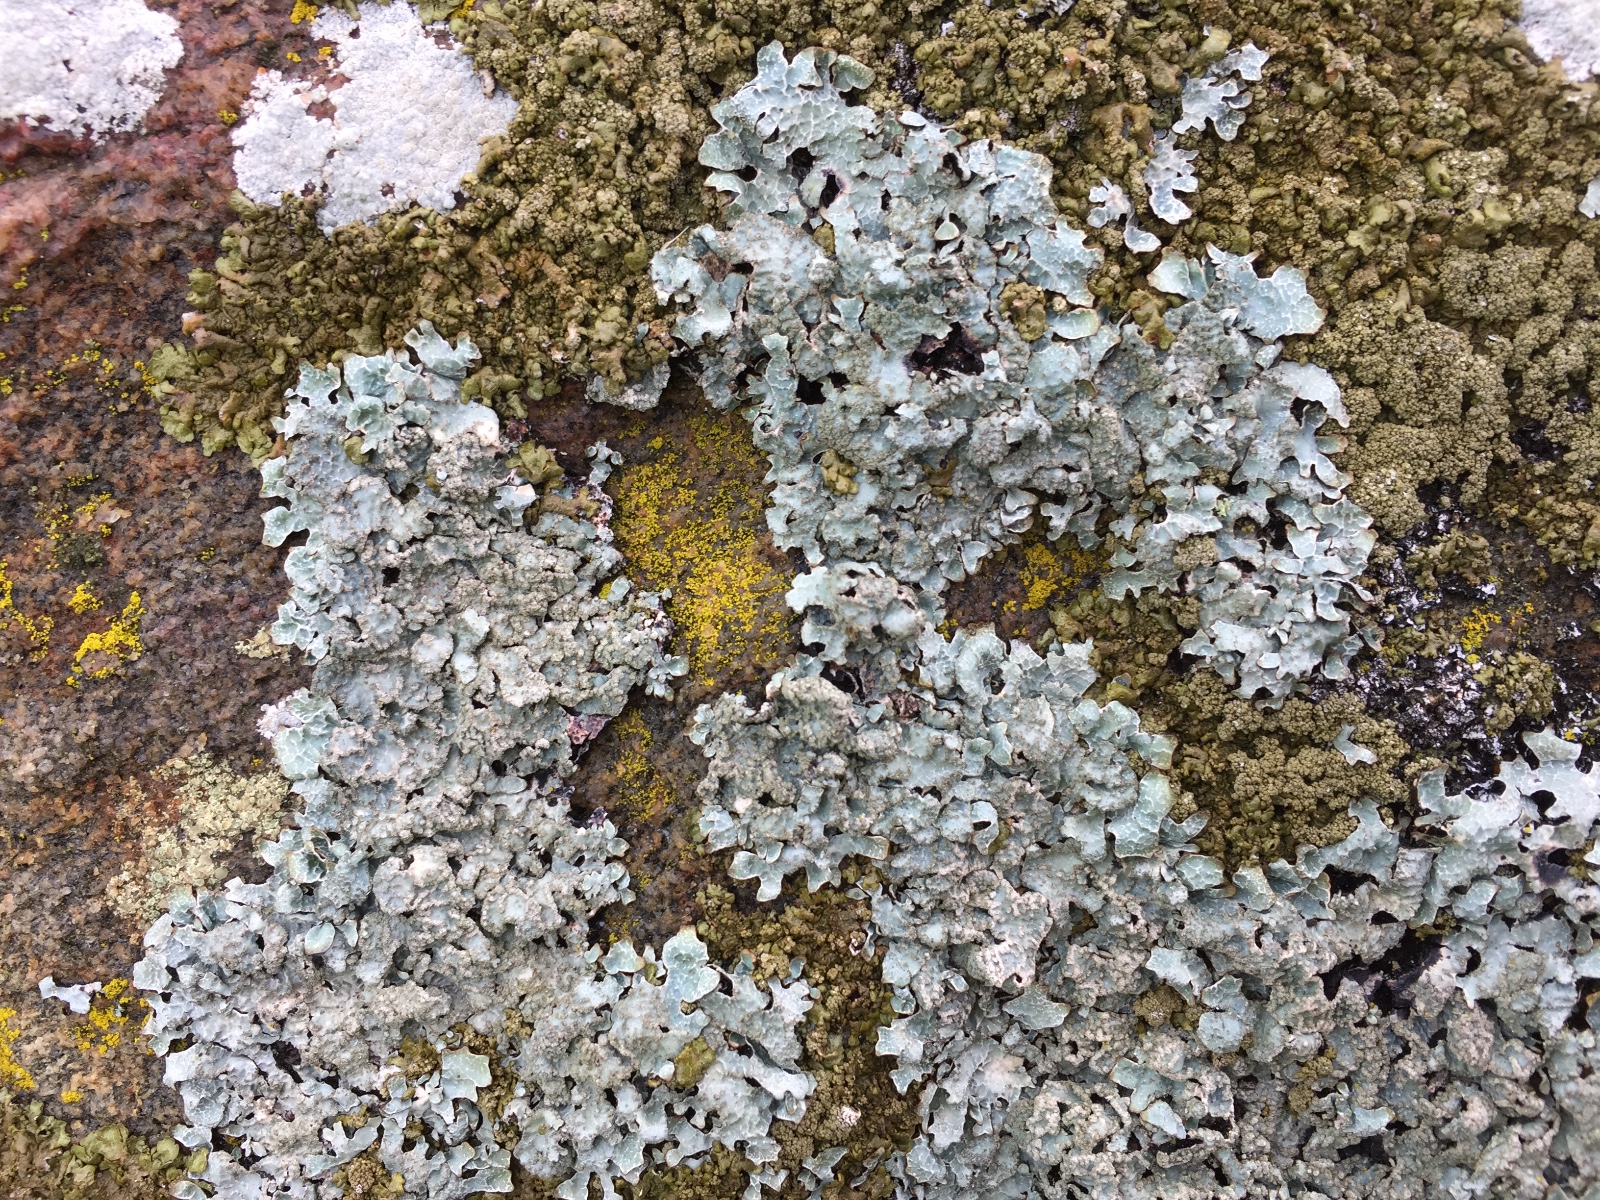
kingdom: Fungi
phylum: Ascomycota
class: Lecanoromycetes
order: Lecanorales
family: Parmeliaceae
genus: Parmelia
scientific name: Parmelia sulcata
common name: rynket skållav
